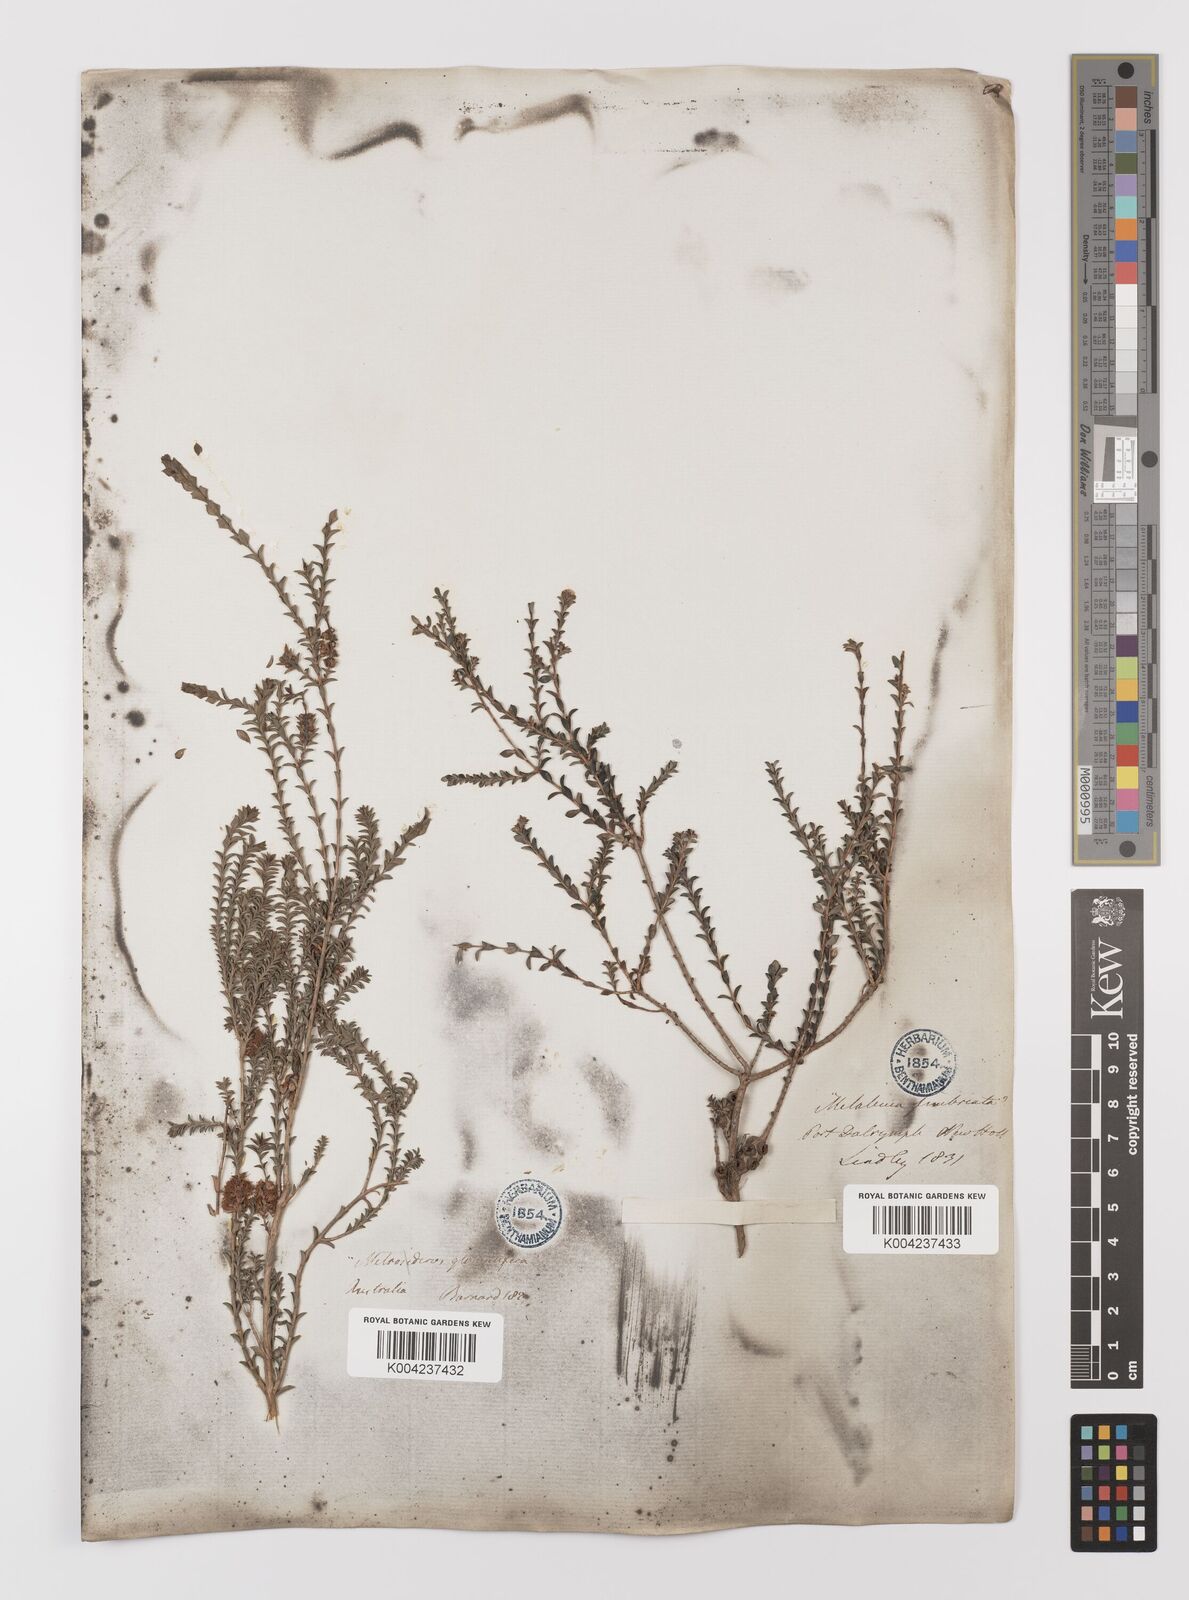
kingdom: Plantae
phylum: Tracheophyta
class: Magnoliopsida
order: Myrtales
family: Myrtaceae
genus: Melaleuca
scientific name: Melaleuca
